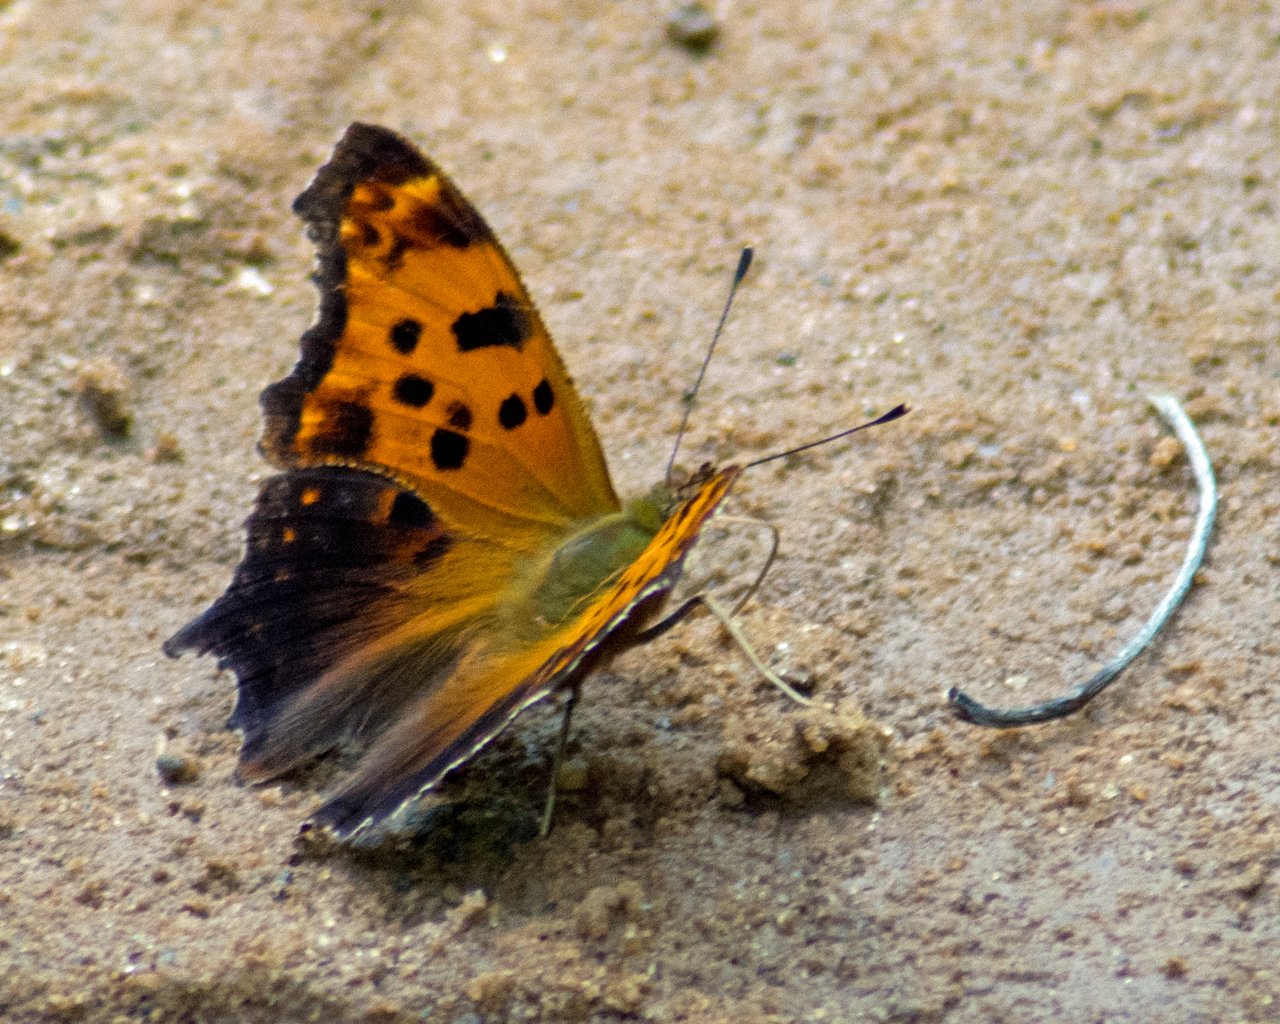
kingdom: Animalia
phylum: Arthropoda
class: Insecta
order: Lepidoptera
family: Nymphalidae
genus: Polygonia
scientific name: Polygonia comma
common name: Eastern Comma
